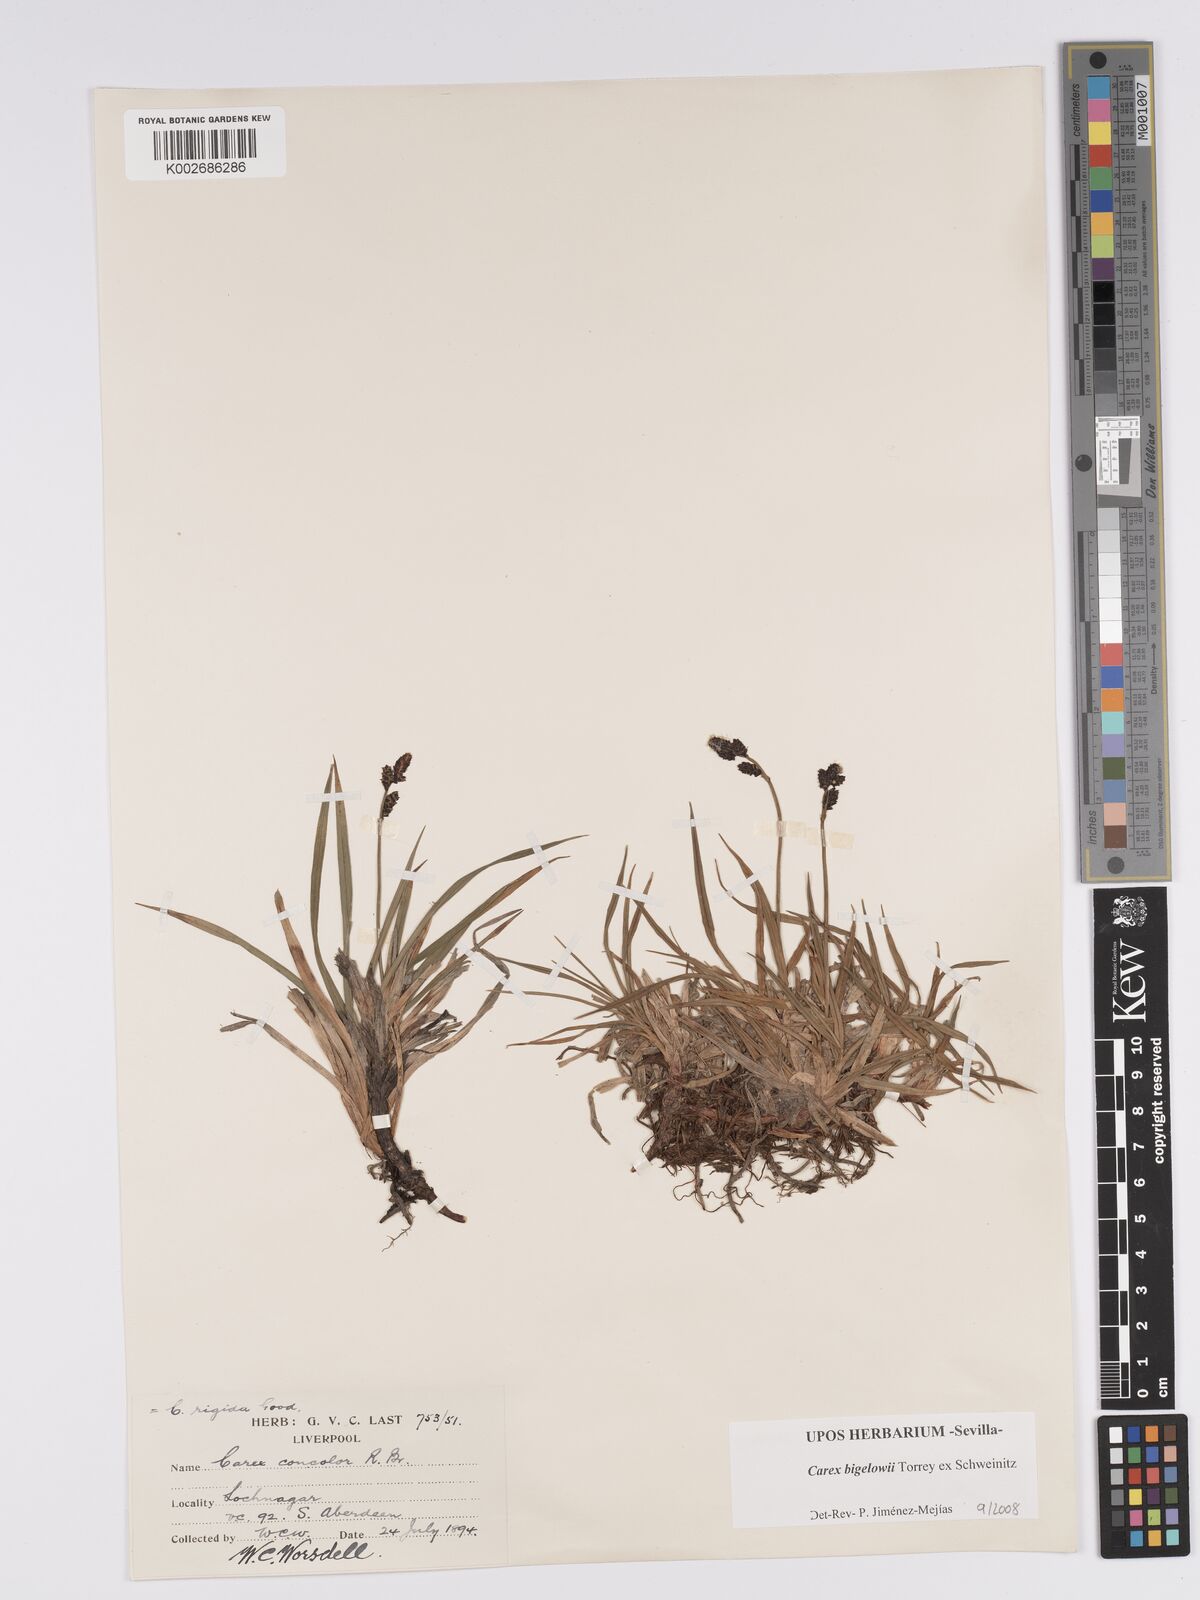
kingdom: Plantae
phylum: Tracheophyta
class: Liliopsida
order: Poales
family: Cyperaceae
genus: Carex
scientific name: Carex bigelowii
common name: Stiff sedge
